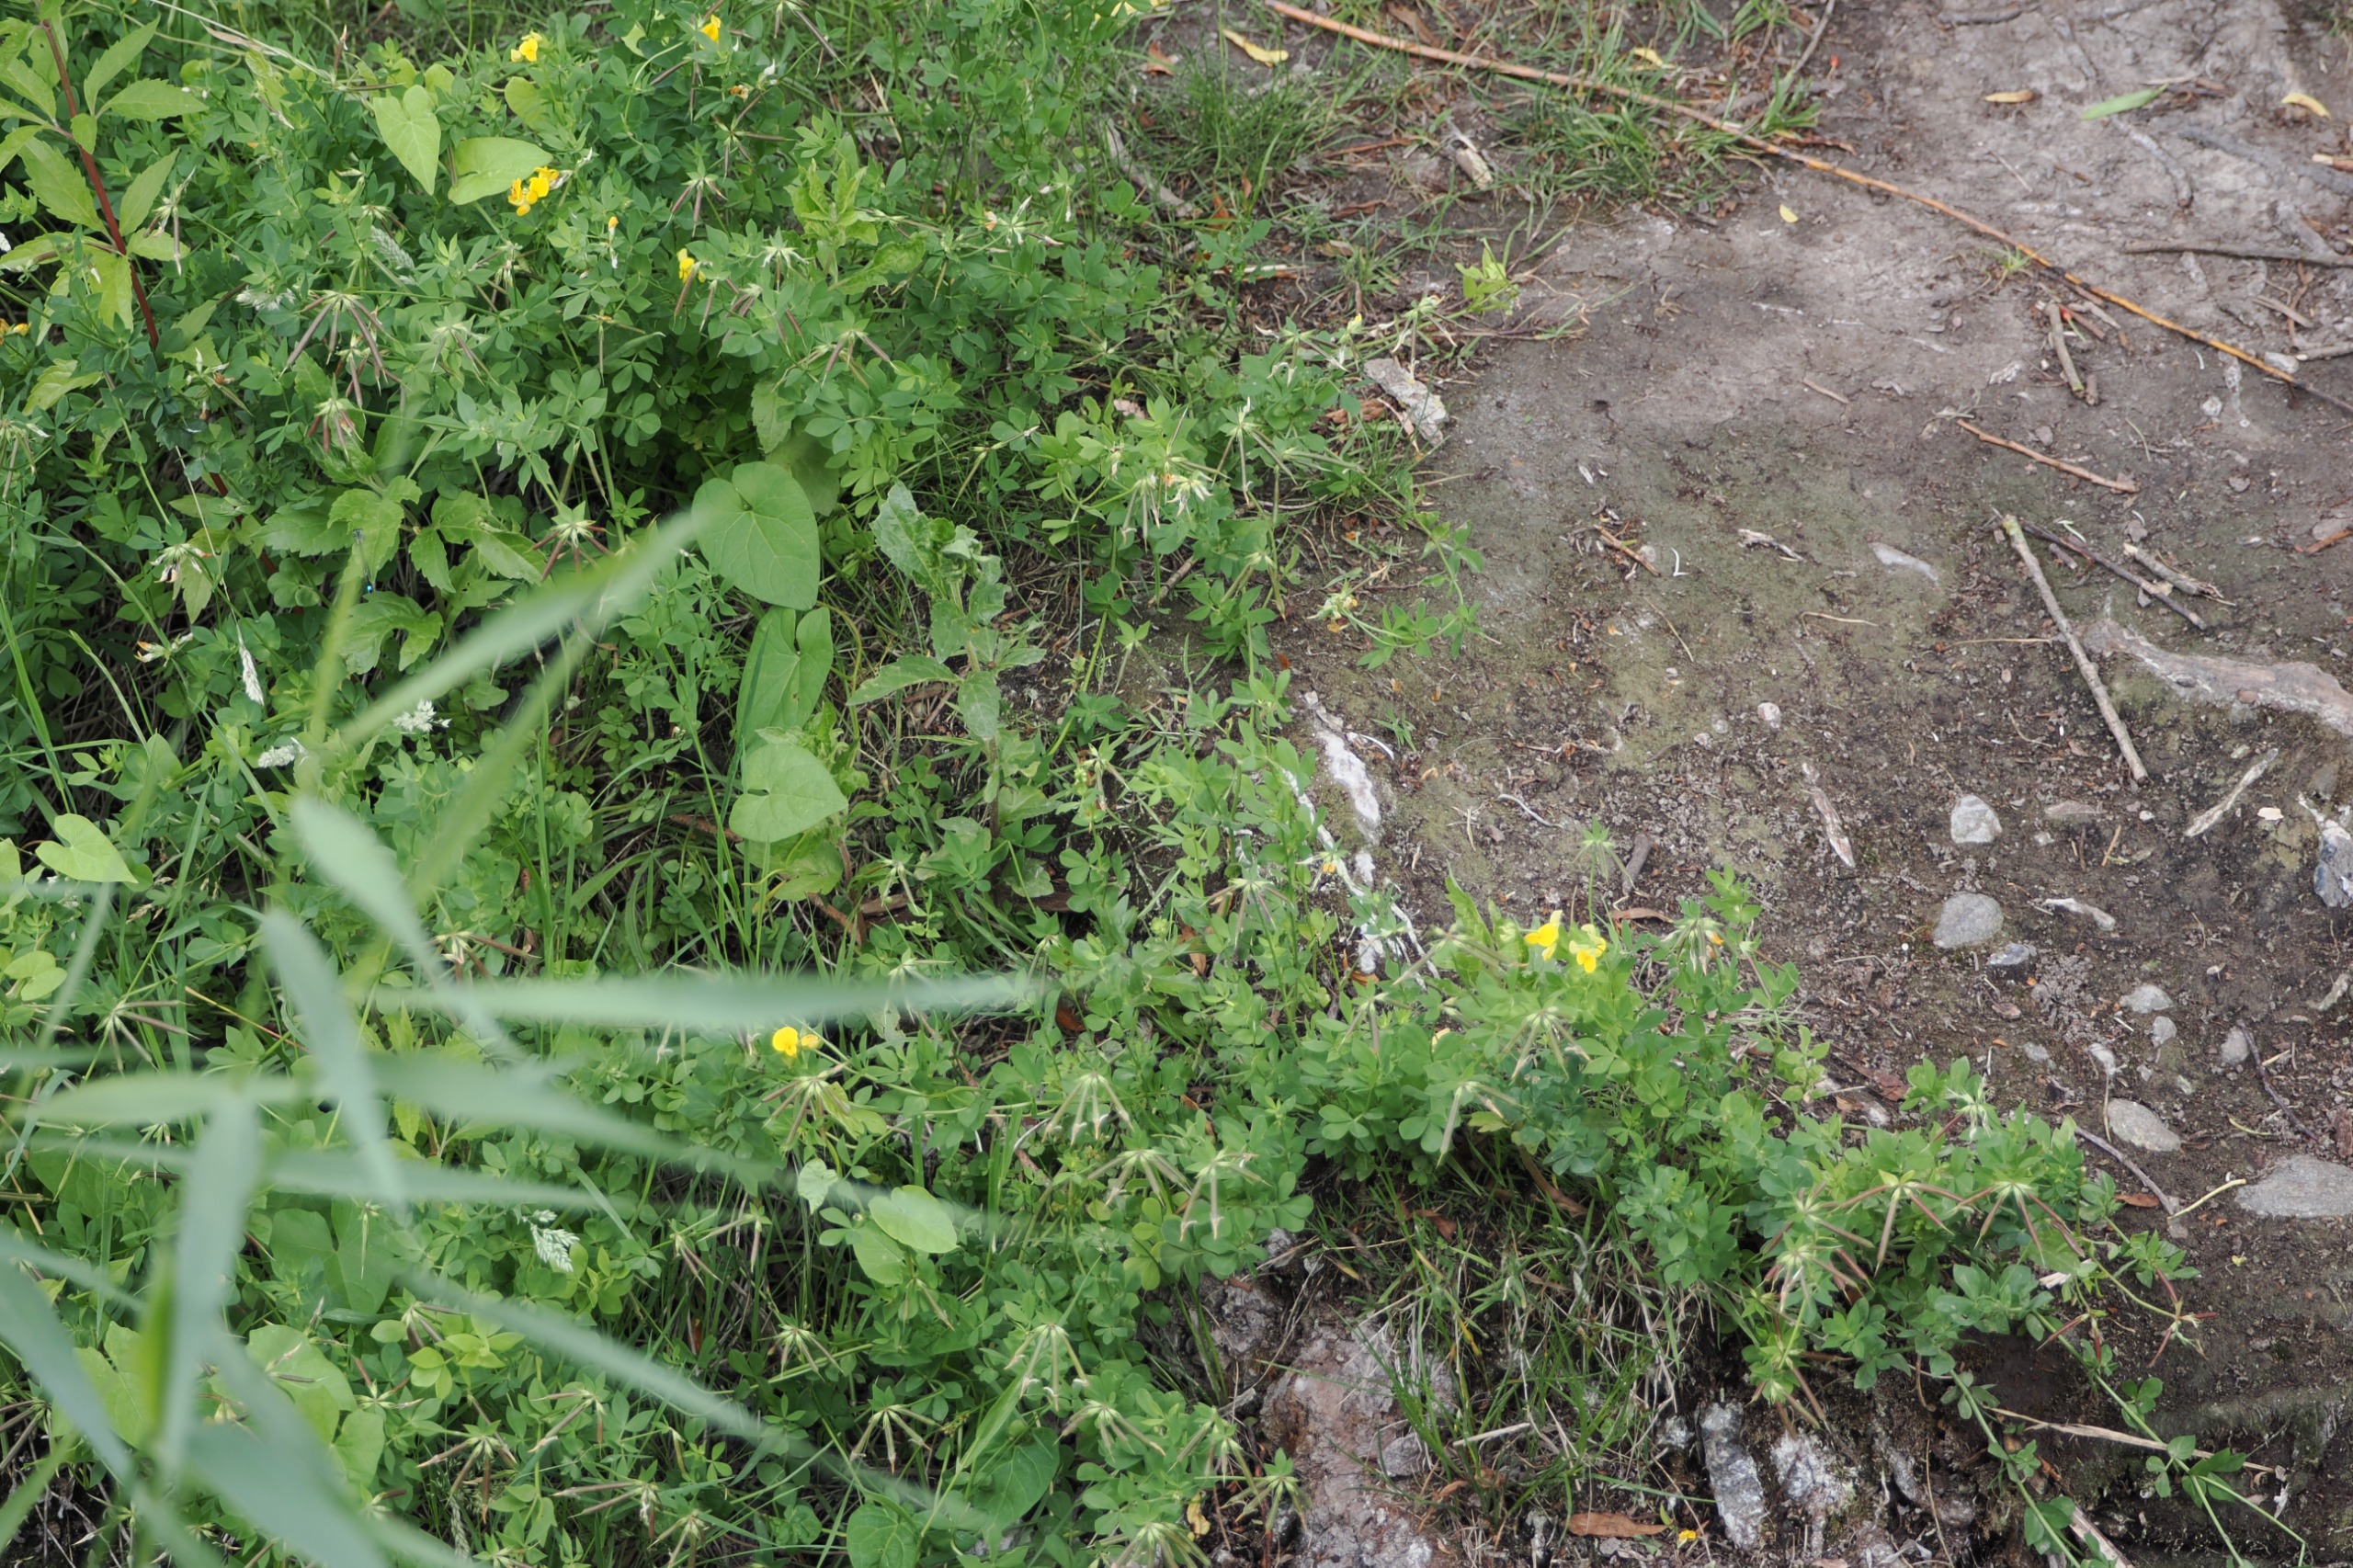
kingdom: Plantae
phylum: Tracheophyta
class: Magnoliopsida
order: Fabales
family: Fabaceae
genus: Lotus
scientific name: Lotus corniculatus
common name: Almindelig kællingetand
